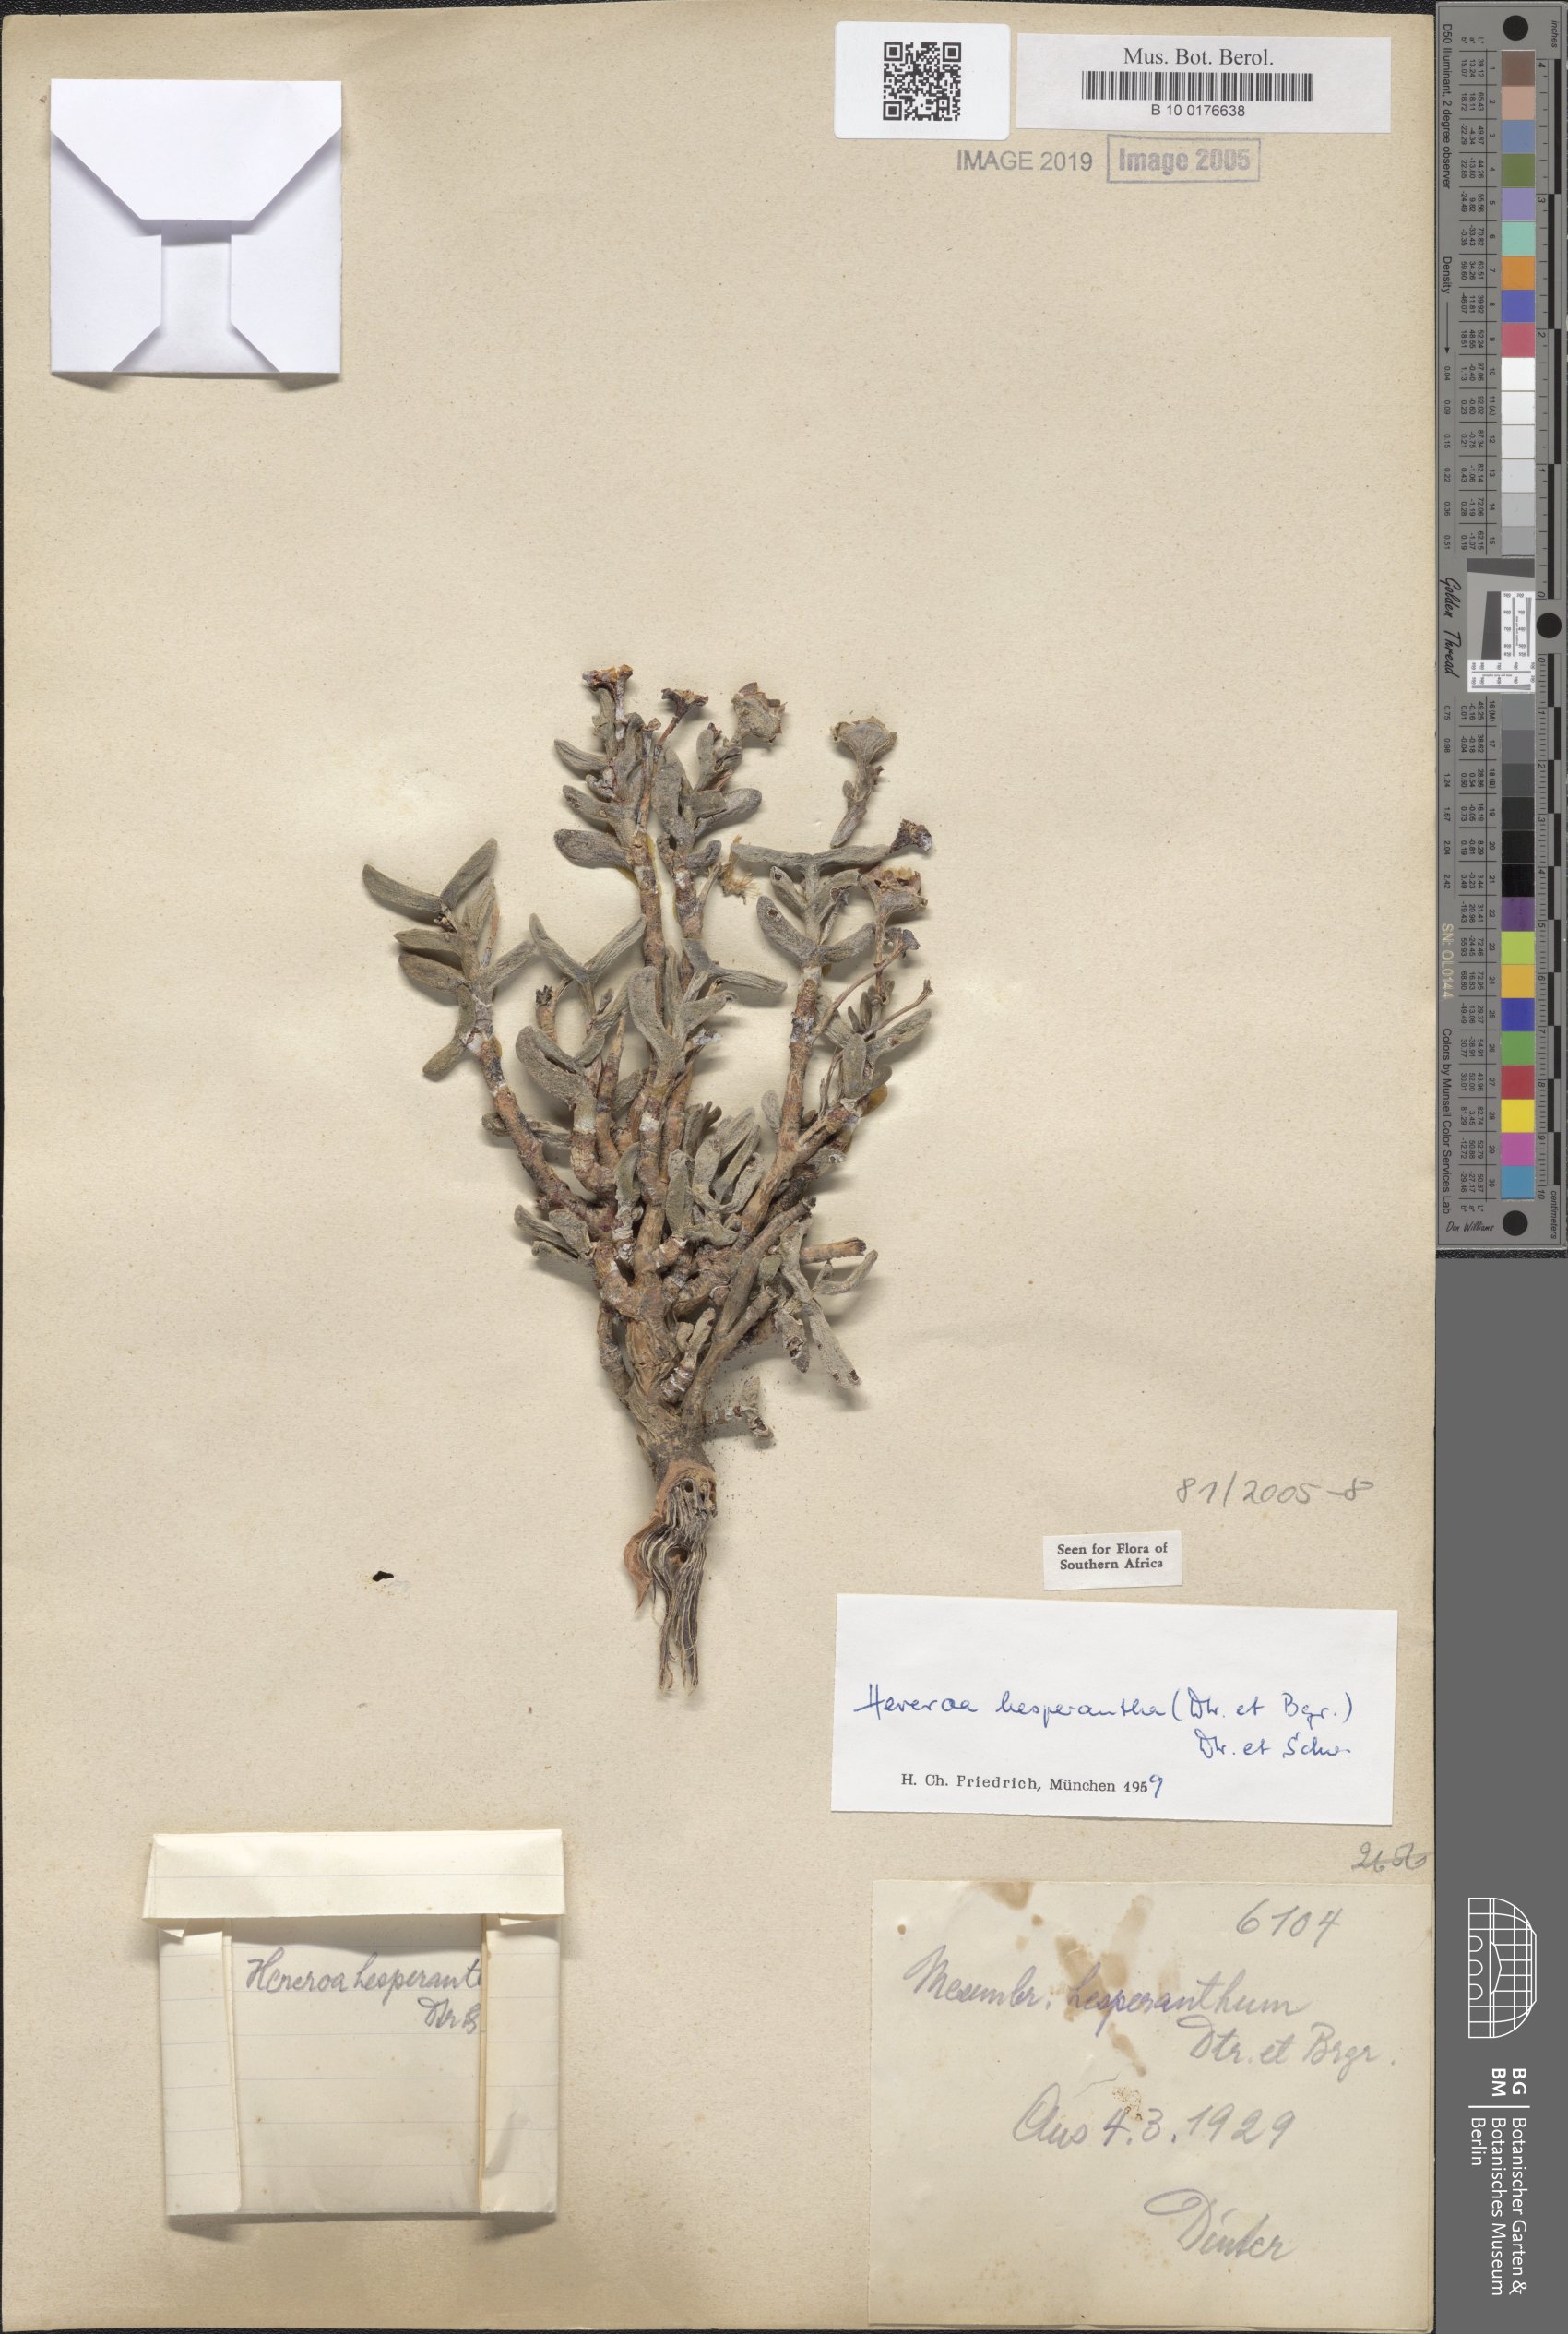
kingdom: Plantae
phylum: Tracheophyta
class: Magnoliopsida
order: Caryophyllales
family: Aizoaceae
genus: Dracophilus
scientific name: Dracophilus Hereroa hesperantha
